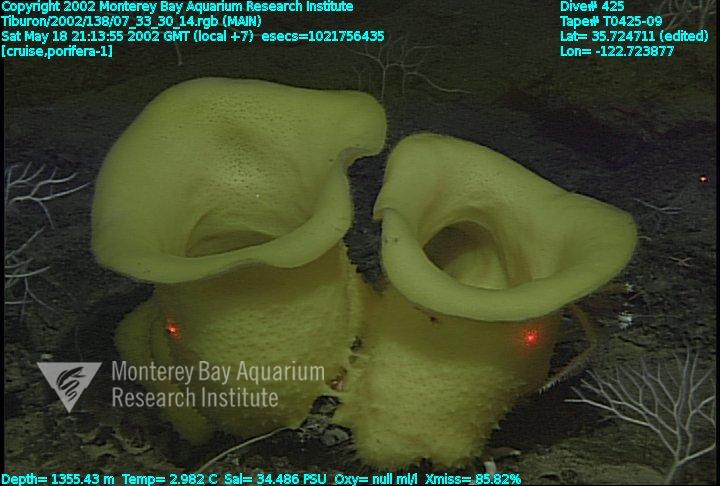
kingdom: Animalia
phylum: Porifera
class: Demospongiae
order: Poecilosclerida
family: Cladorhizidae
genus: Asbestopluma
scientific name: Asbestopluma monticola
